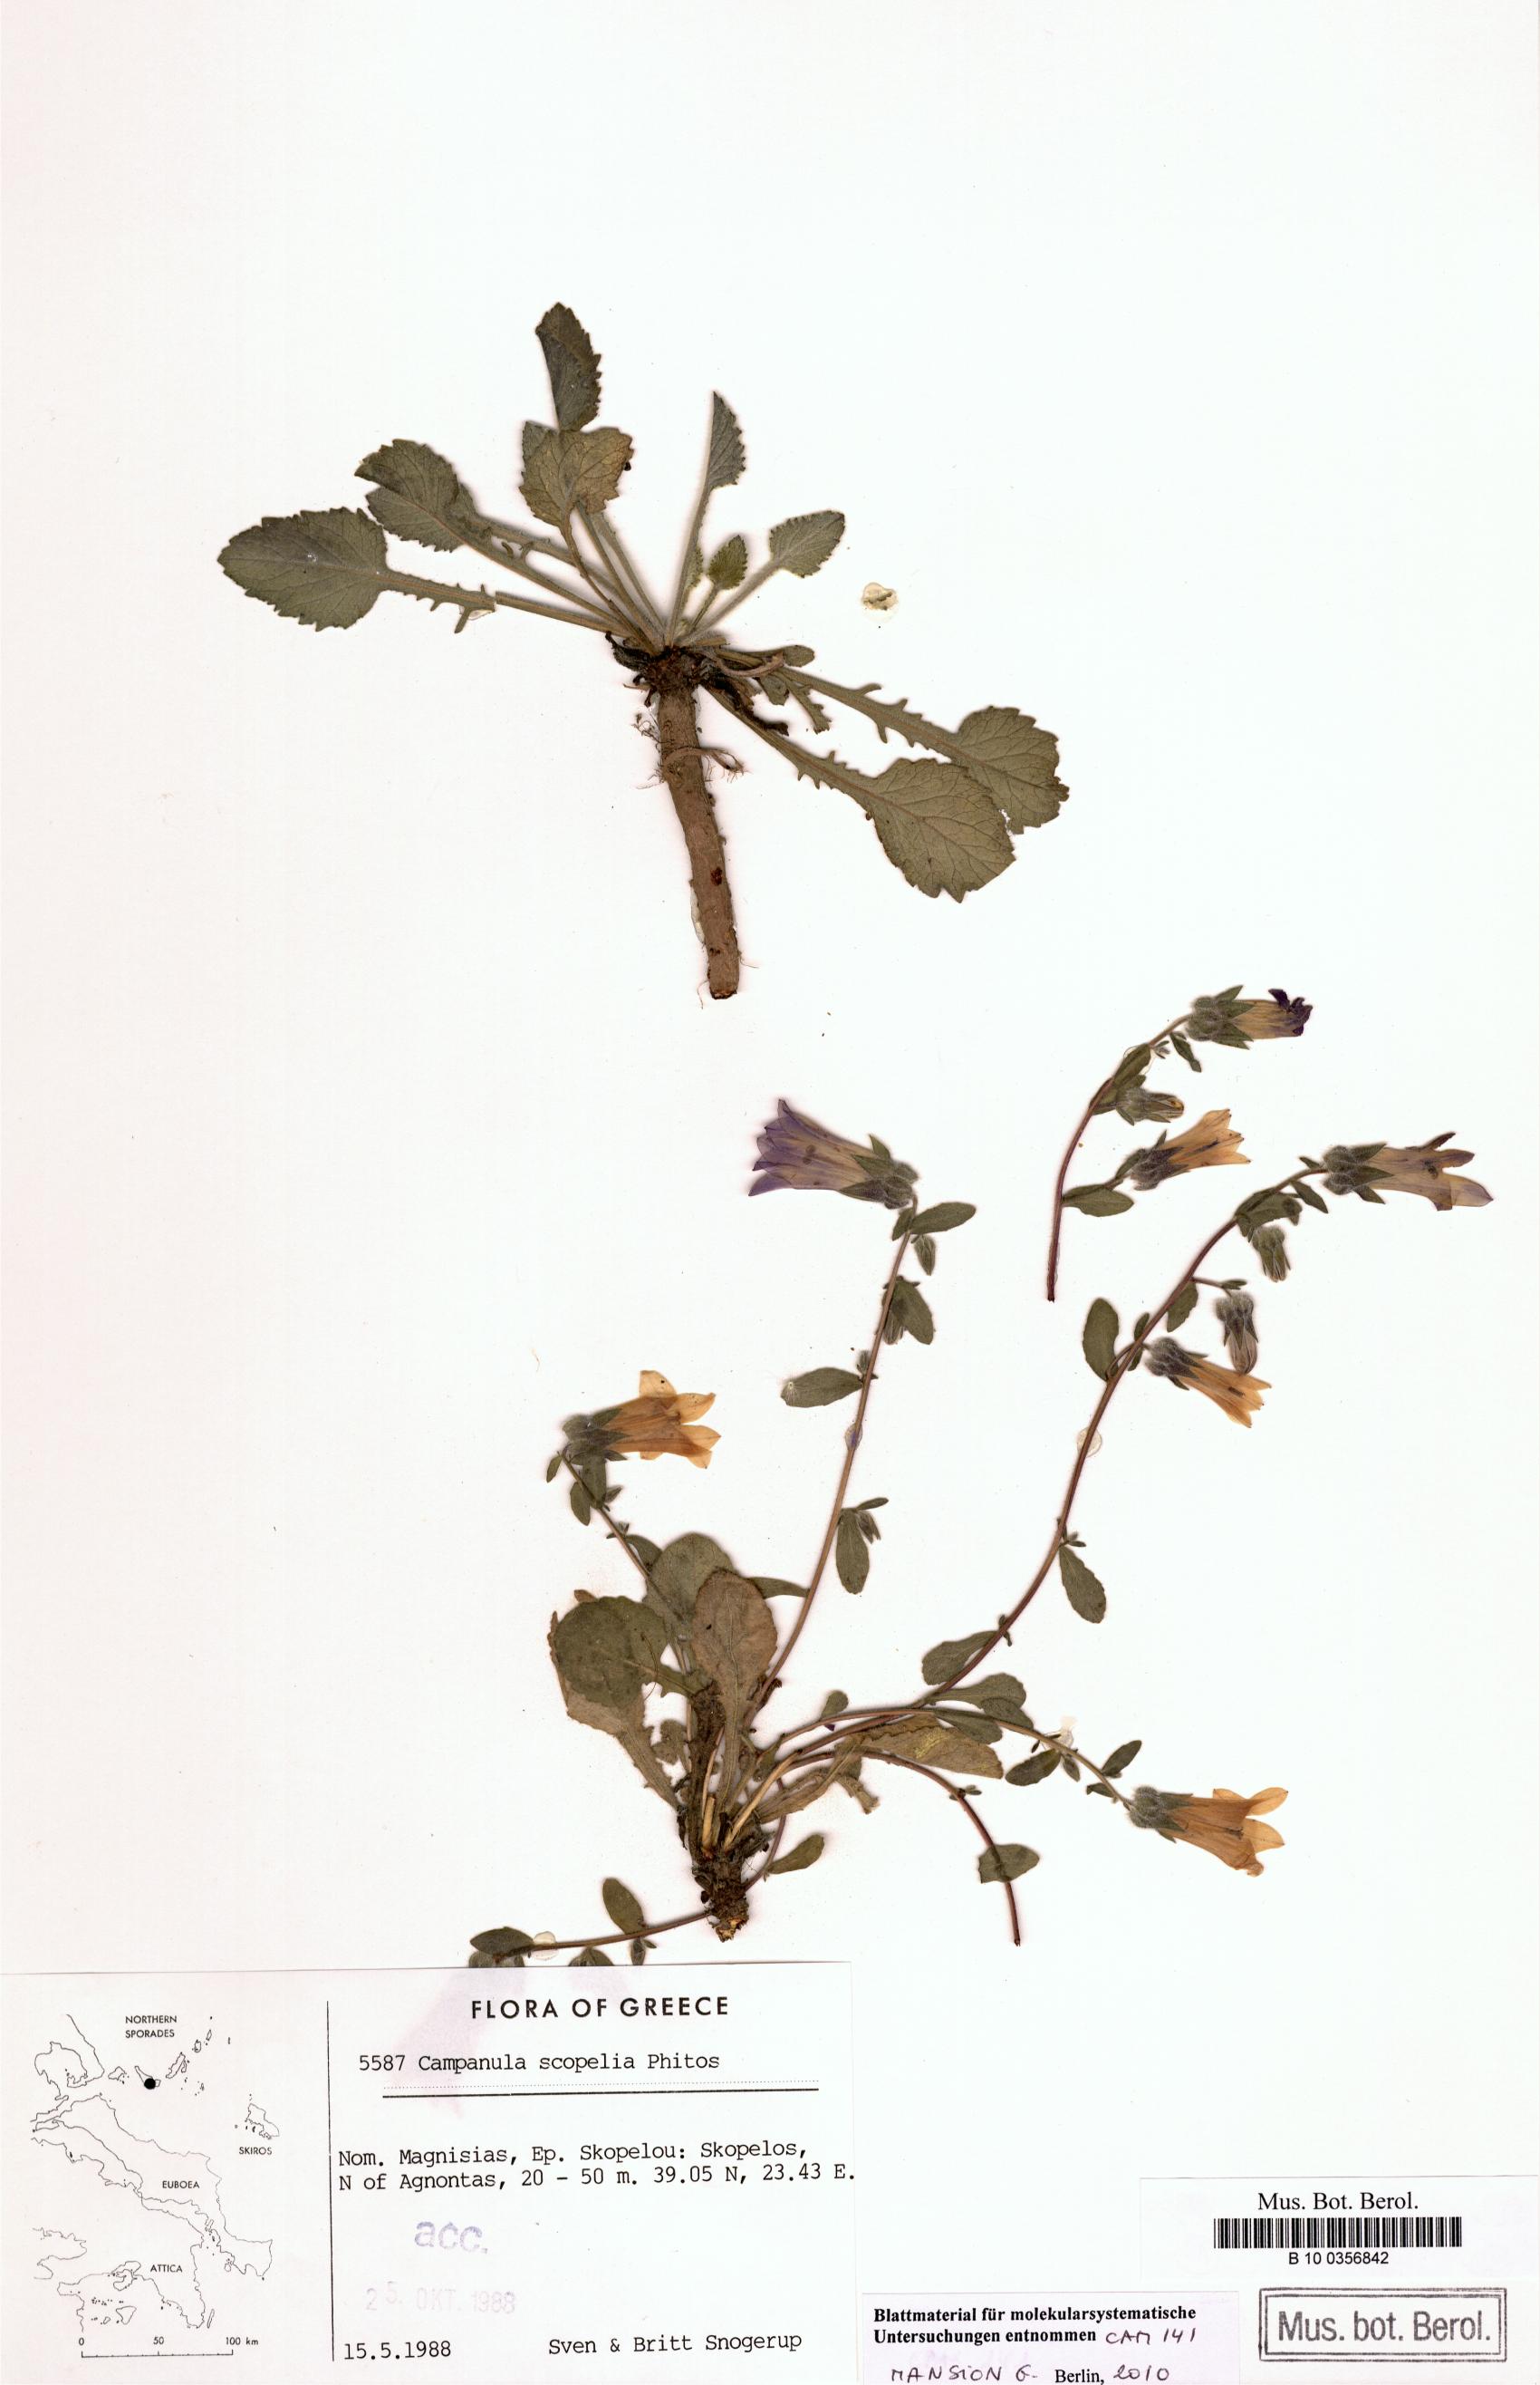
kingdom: Plantae
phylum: Tracheophyta
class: Magnoliopsida
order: Asterales
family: Campanulaceae
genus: Campanula
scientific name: Campanula scopelia
